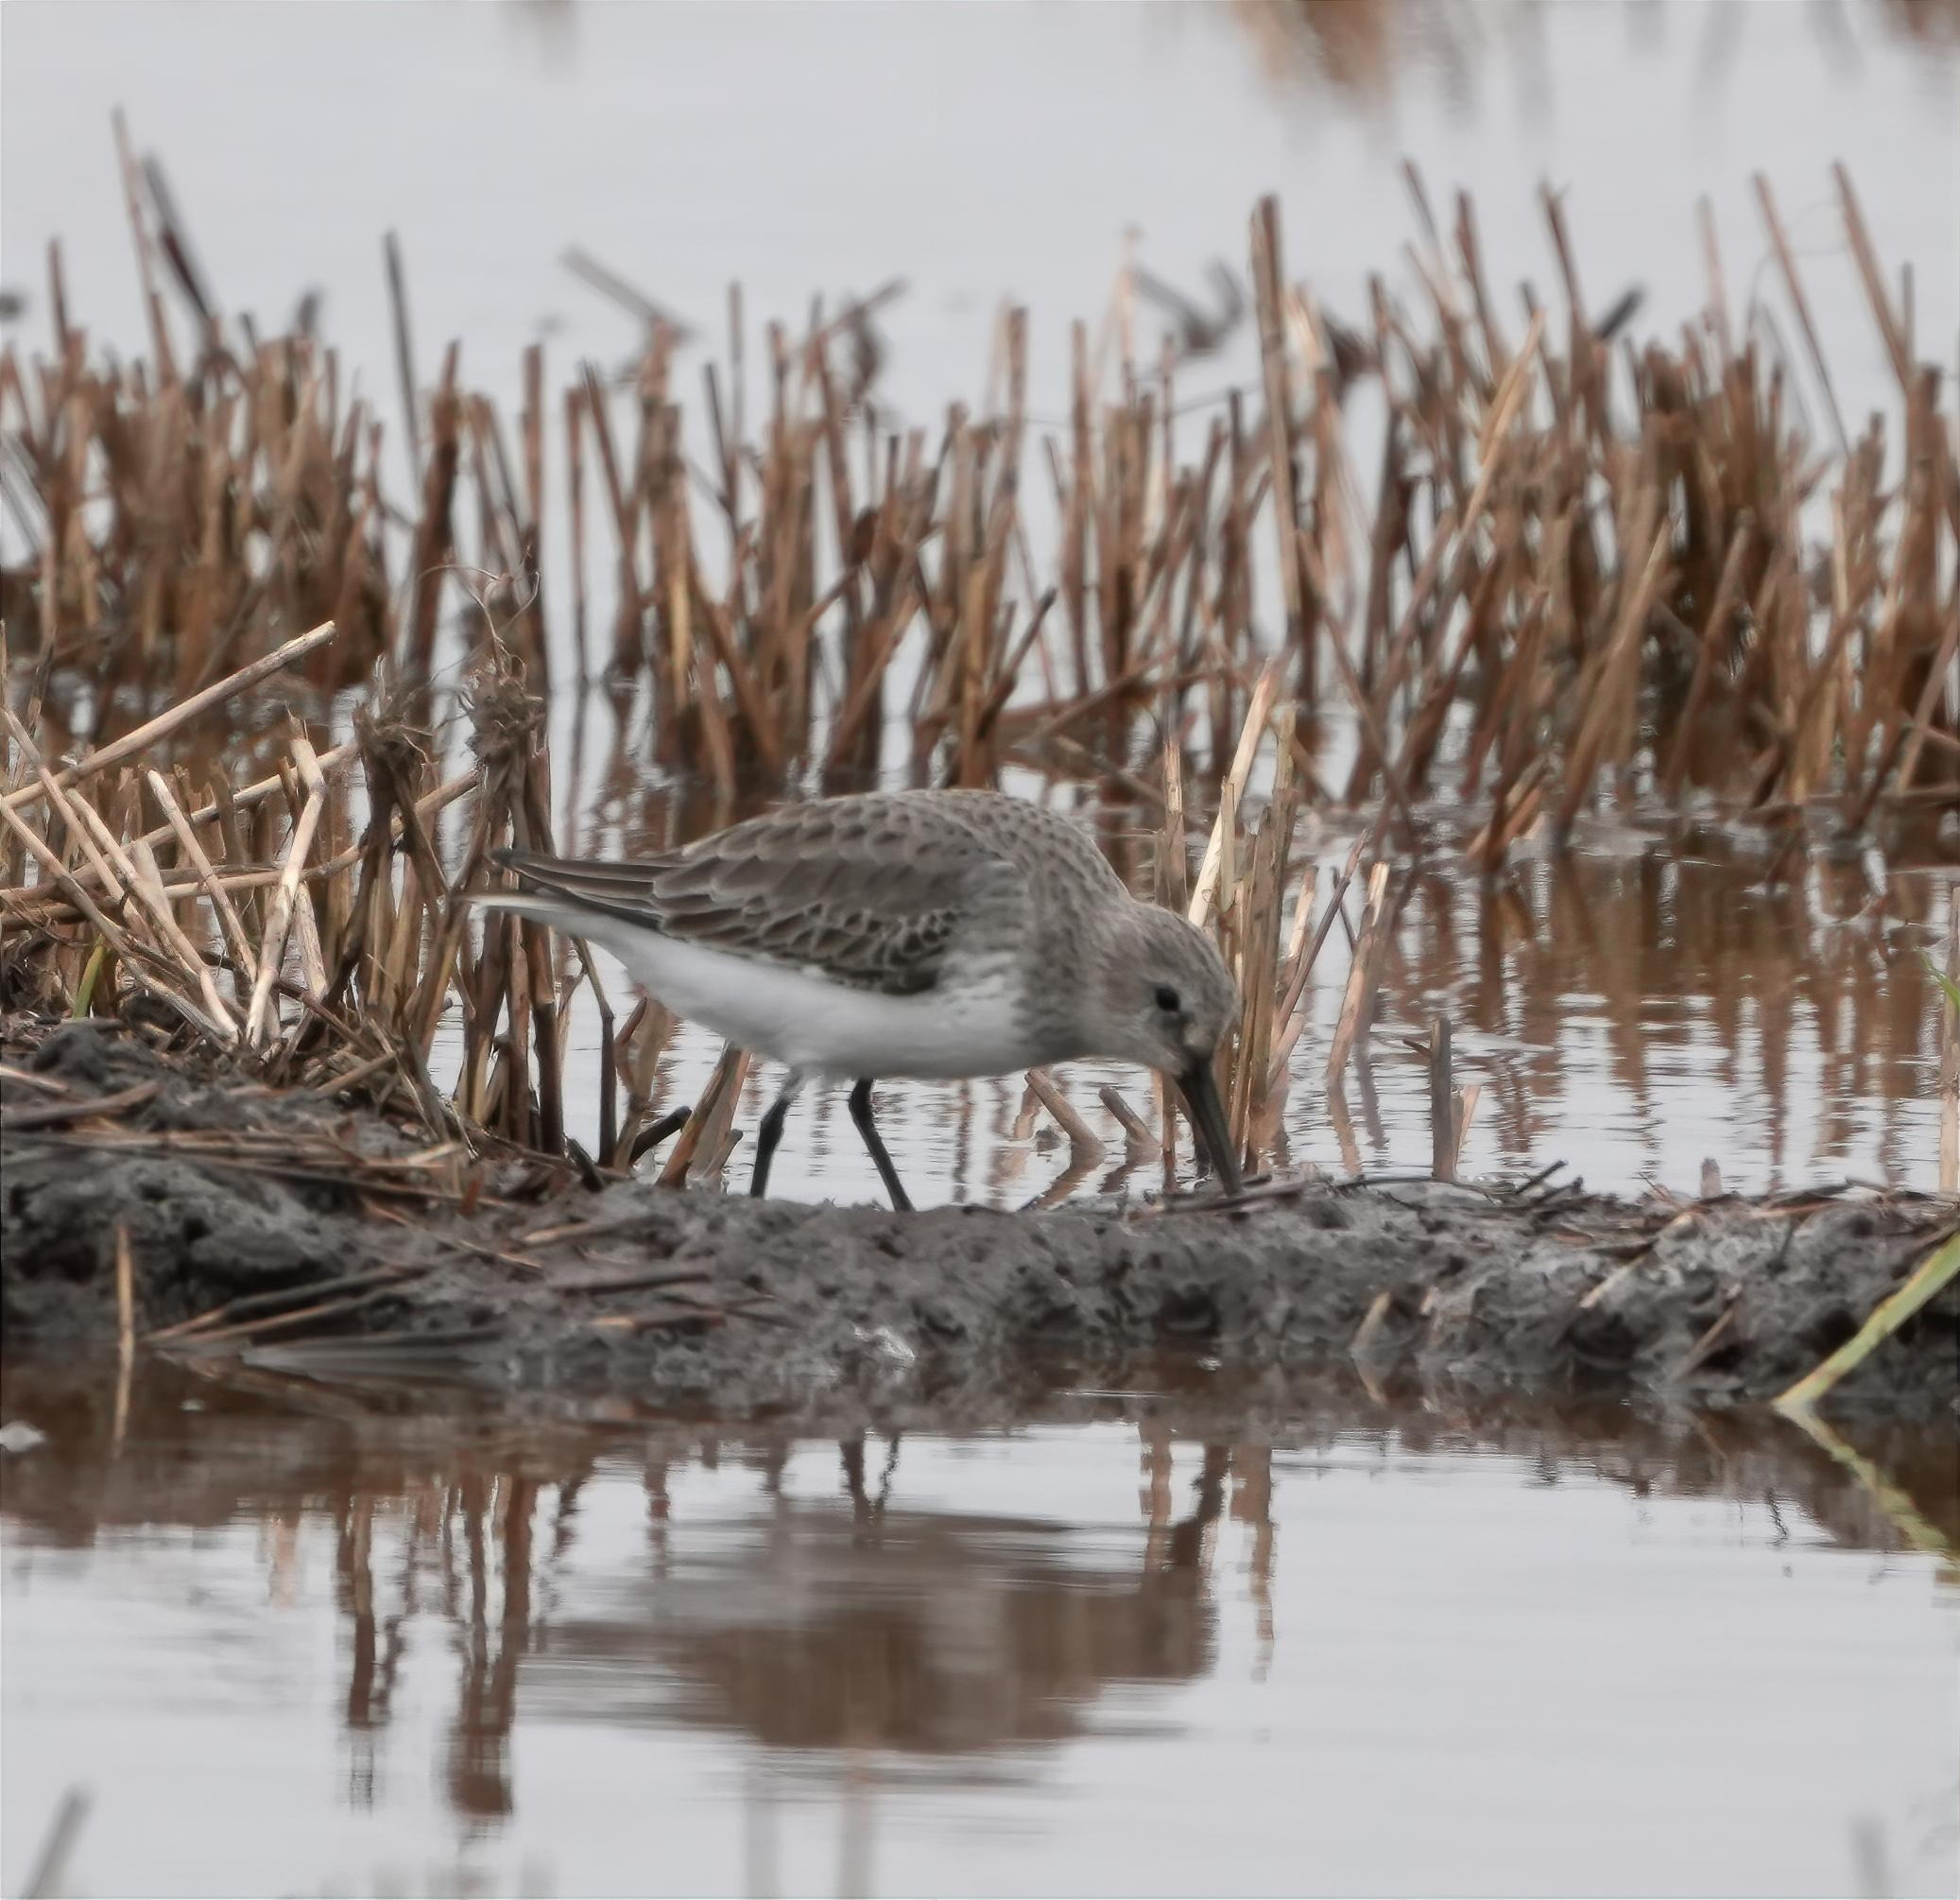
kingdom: Animalia
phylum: Chordata
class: Aves
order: Charadriiformes
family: Scolopacidae
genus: Calidris
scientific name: Calidris alpina
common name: Almindelig ryle
